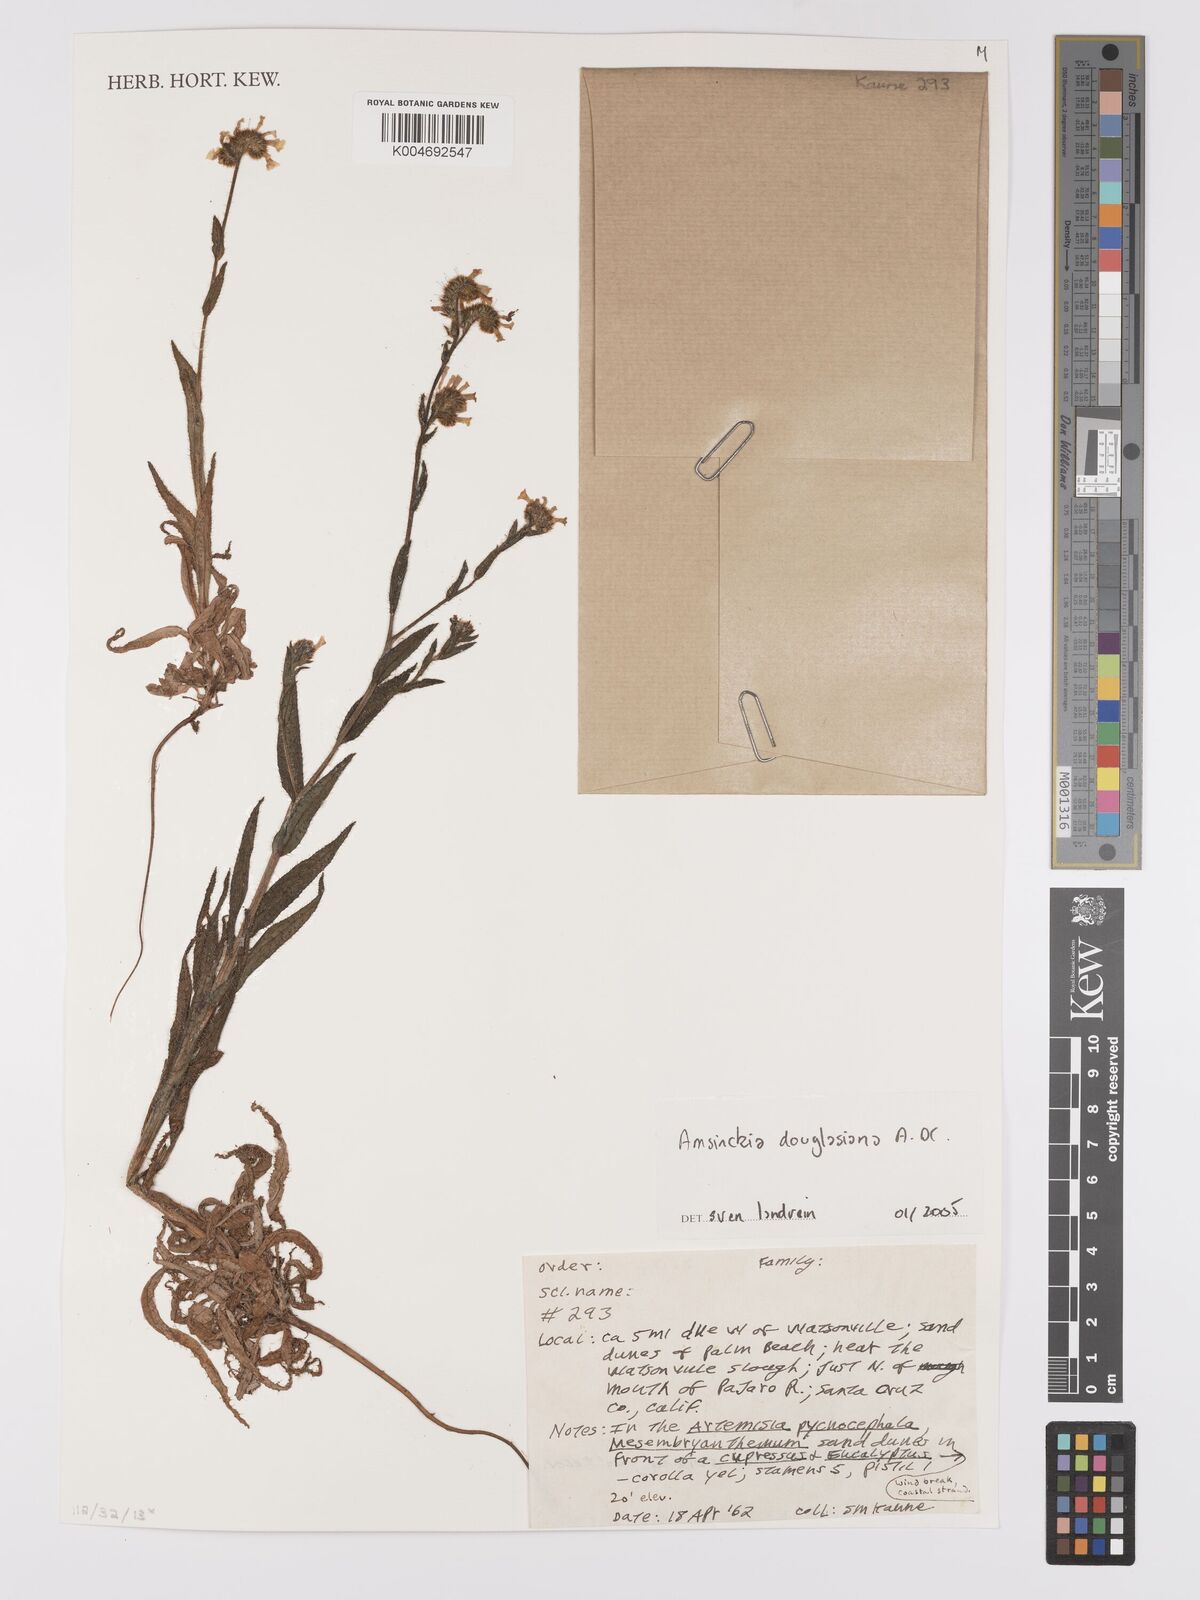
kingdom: Plantae
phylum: Tracheophyta
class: Magnoliopsida
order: Boraginales
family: Boraginaceae
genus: Amsinckia
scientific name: Amsinckia douglasiana
